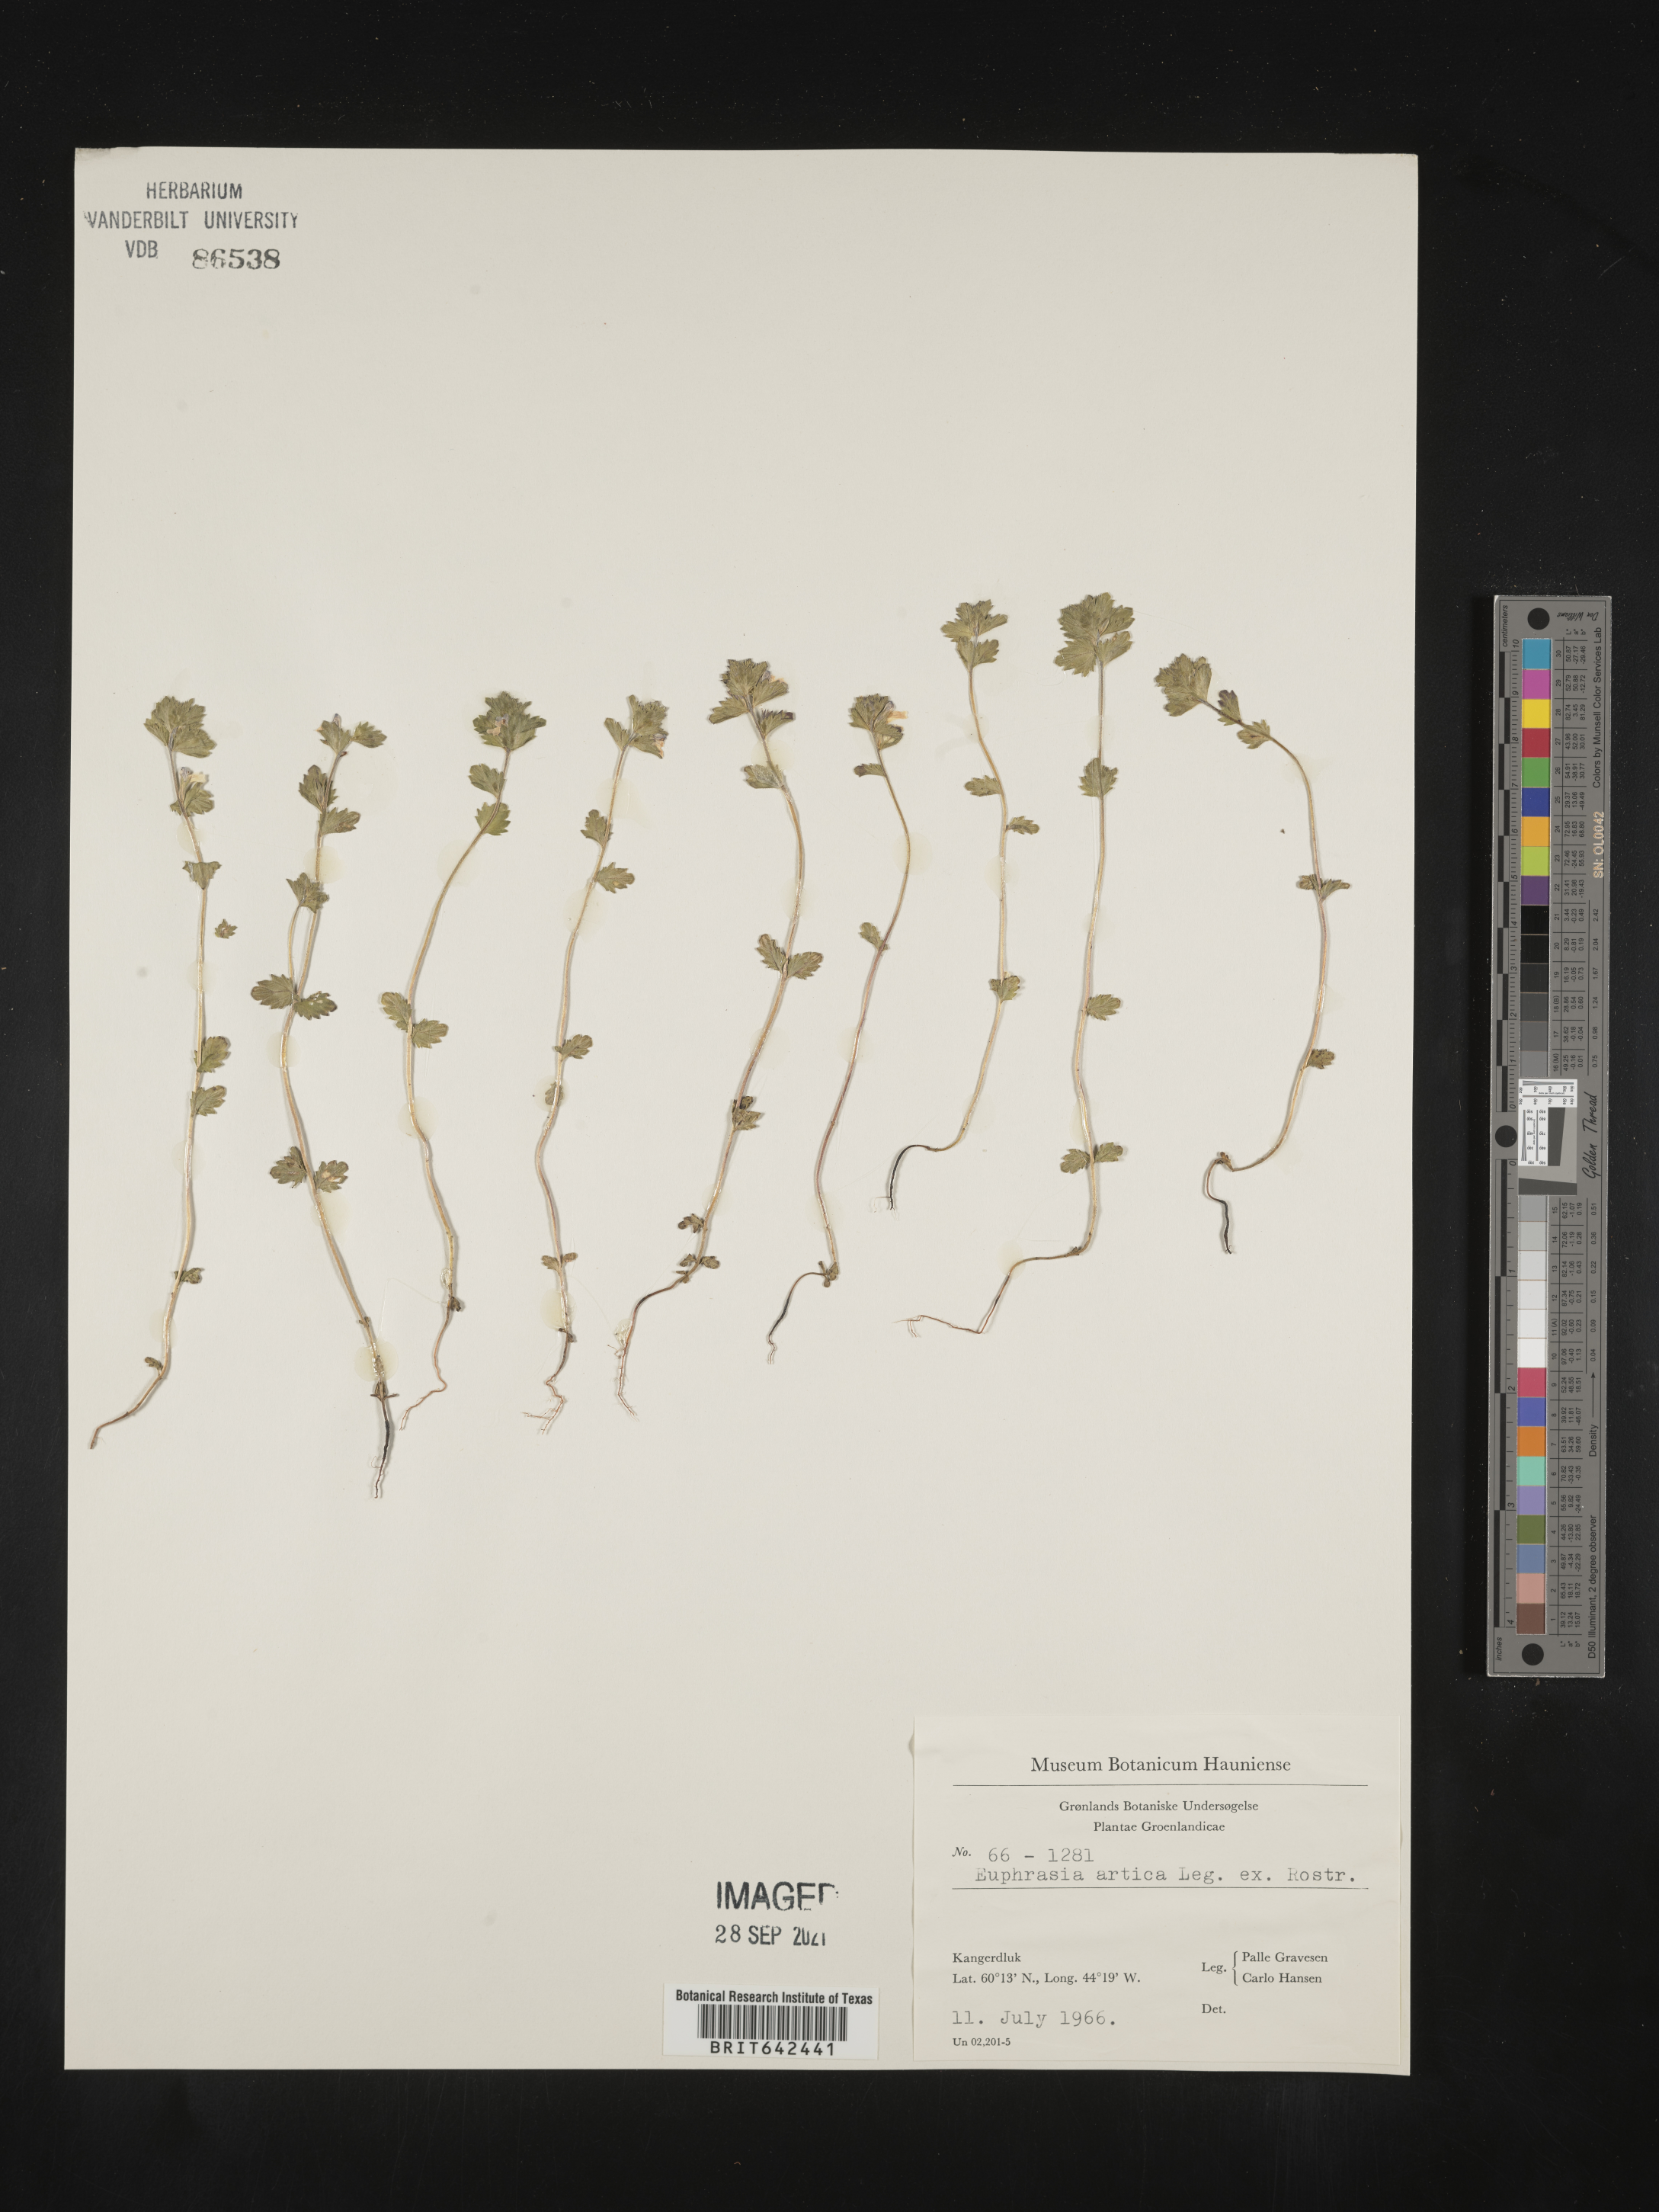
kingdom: Plantae
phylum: Tracheophyta
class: Magnoliopsida
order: Lamiales
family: Orobanchaceae
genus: Euphrasia
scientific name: Euphrasia
